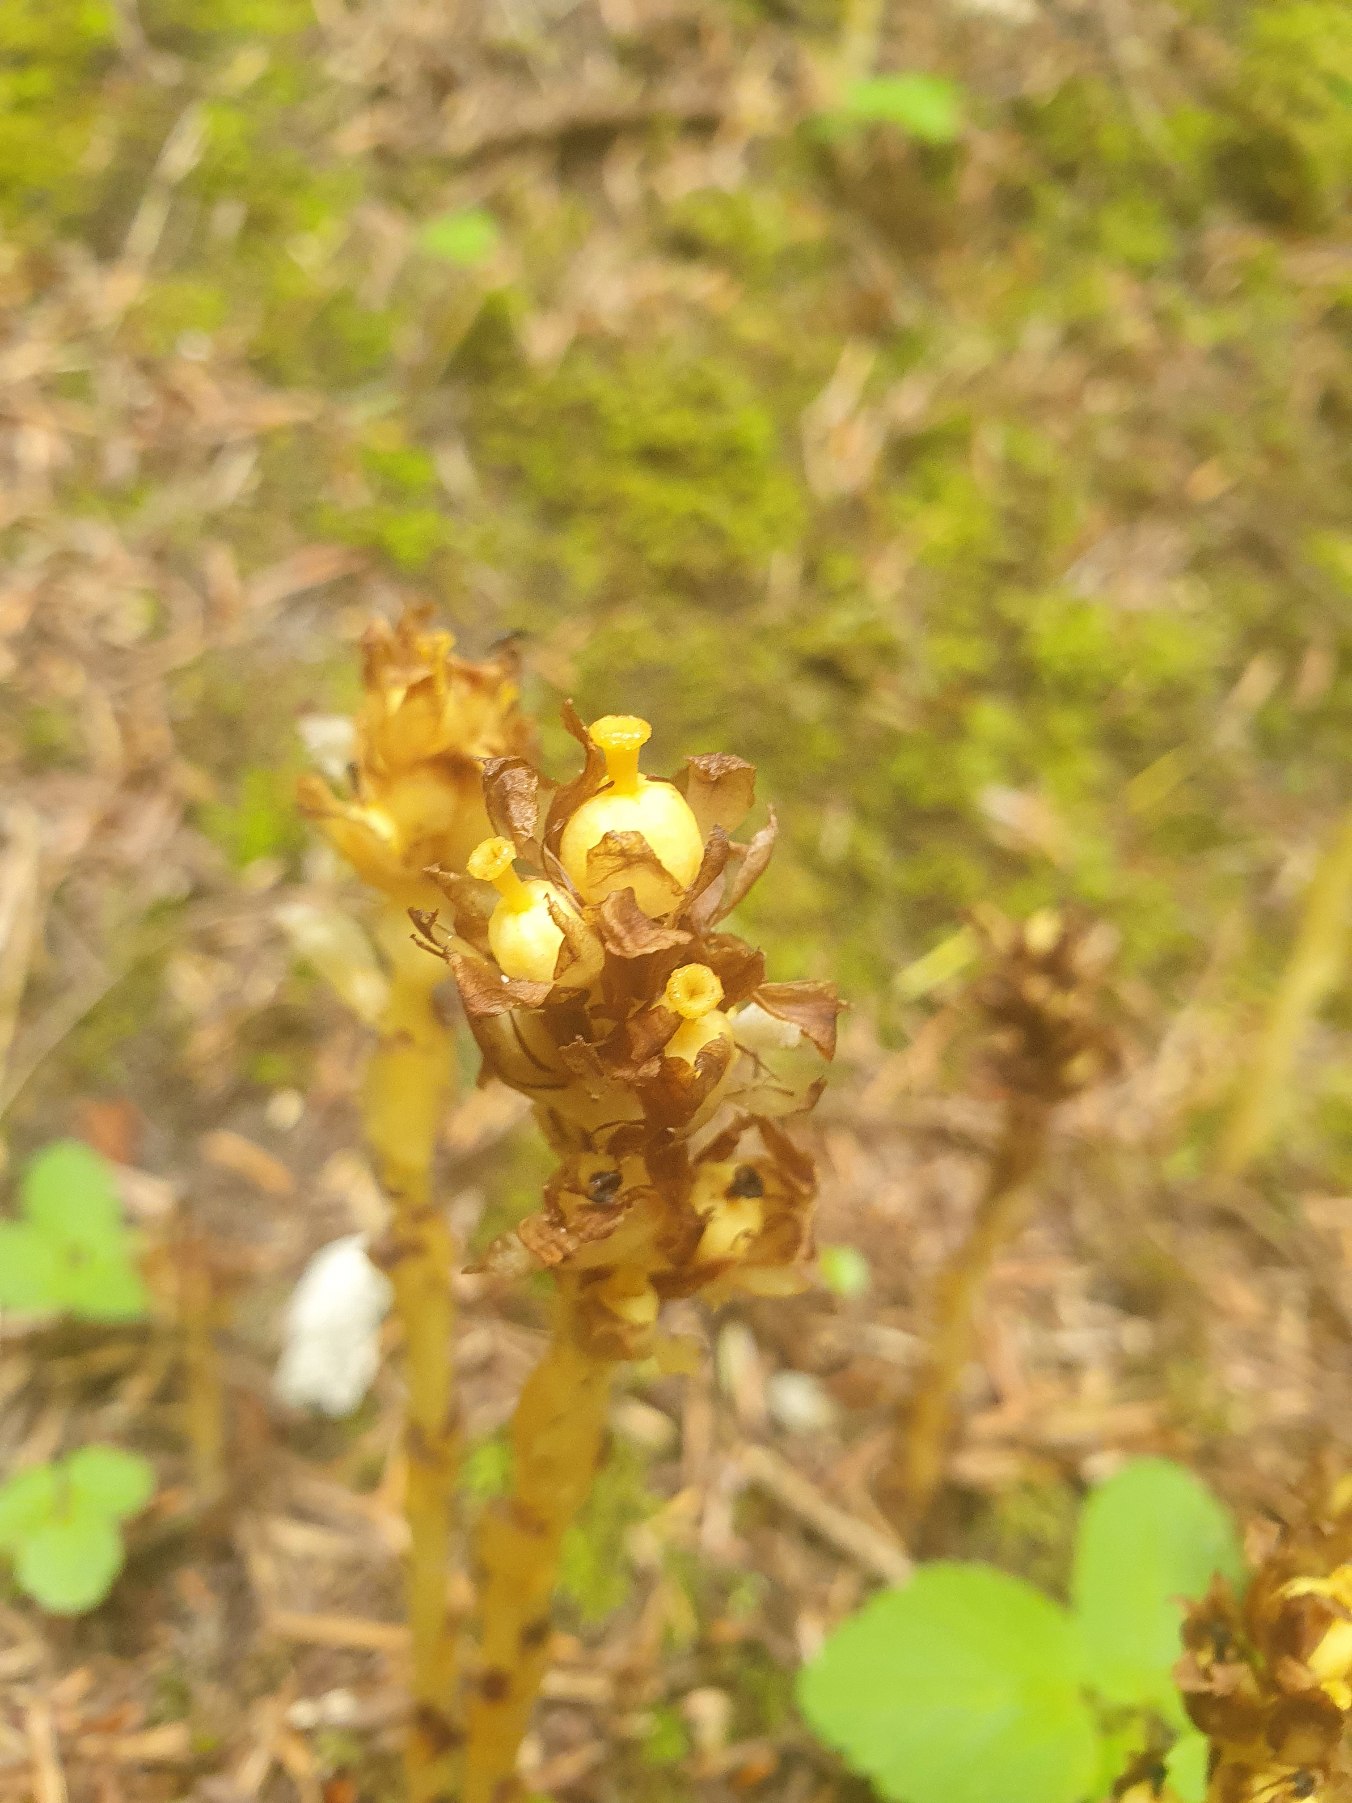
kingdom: Plantae
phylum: Tracheophyta
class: Magnoliopsida
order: Ericales
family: Ericaceae
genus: Hypopitys
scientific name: Hypopitys monotropa
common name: Snylterod
